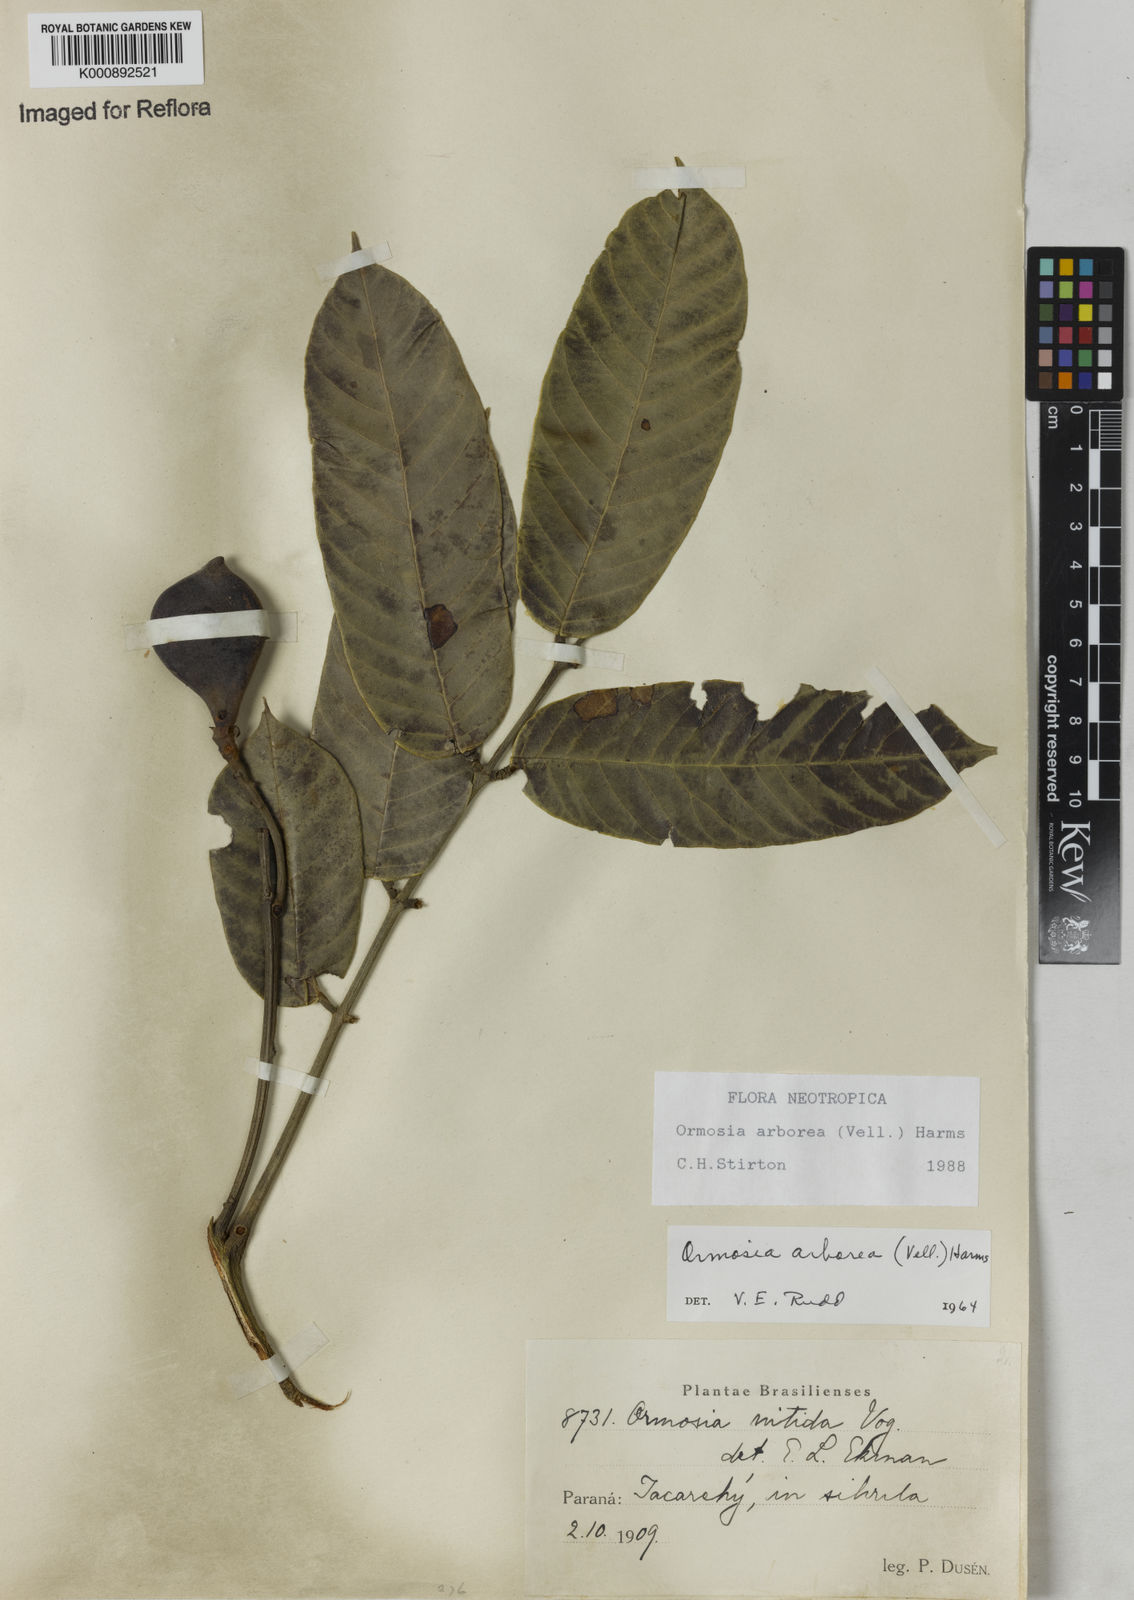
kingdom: Plantae
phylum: Tracheophyta
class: Magnoliopsida
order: Fabales
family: Fabaceae
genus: Ormosia
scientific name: Ormosia arborea
